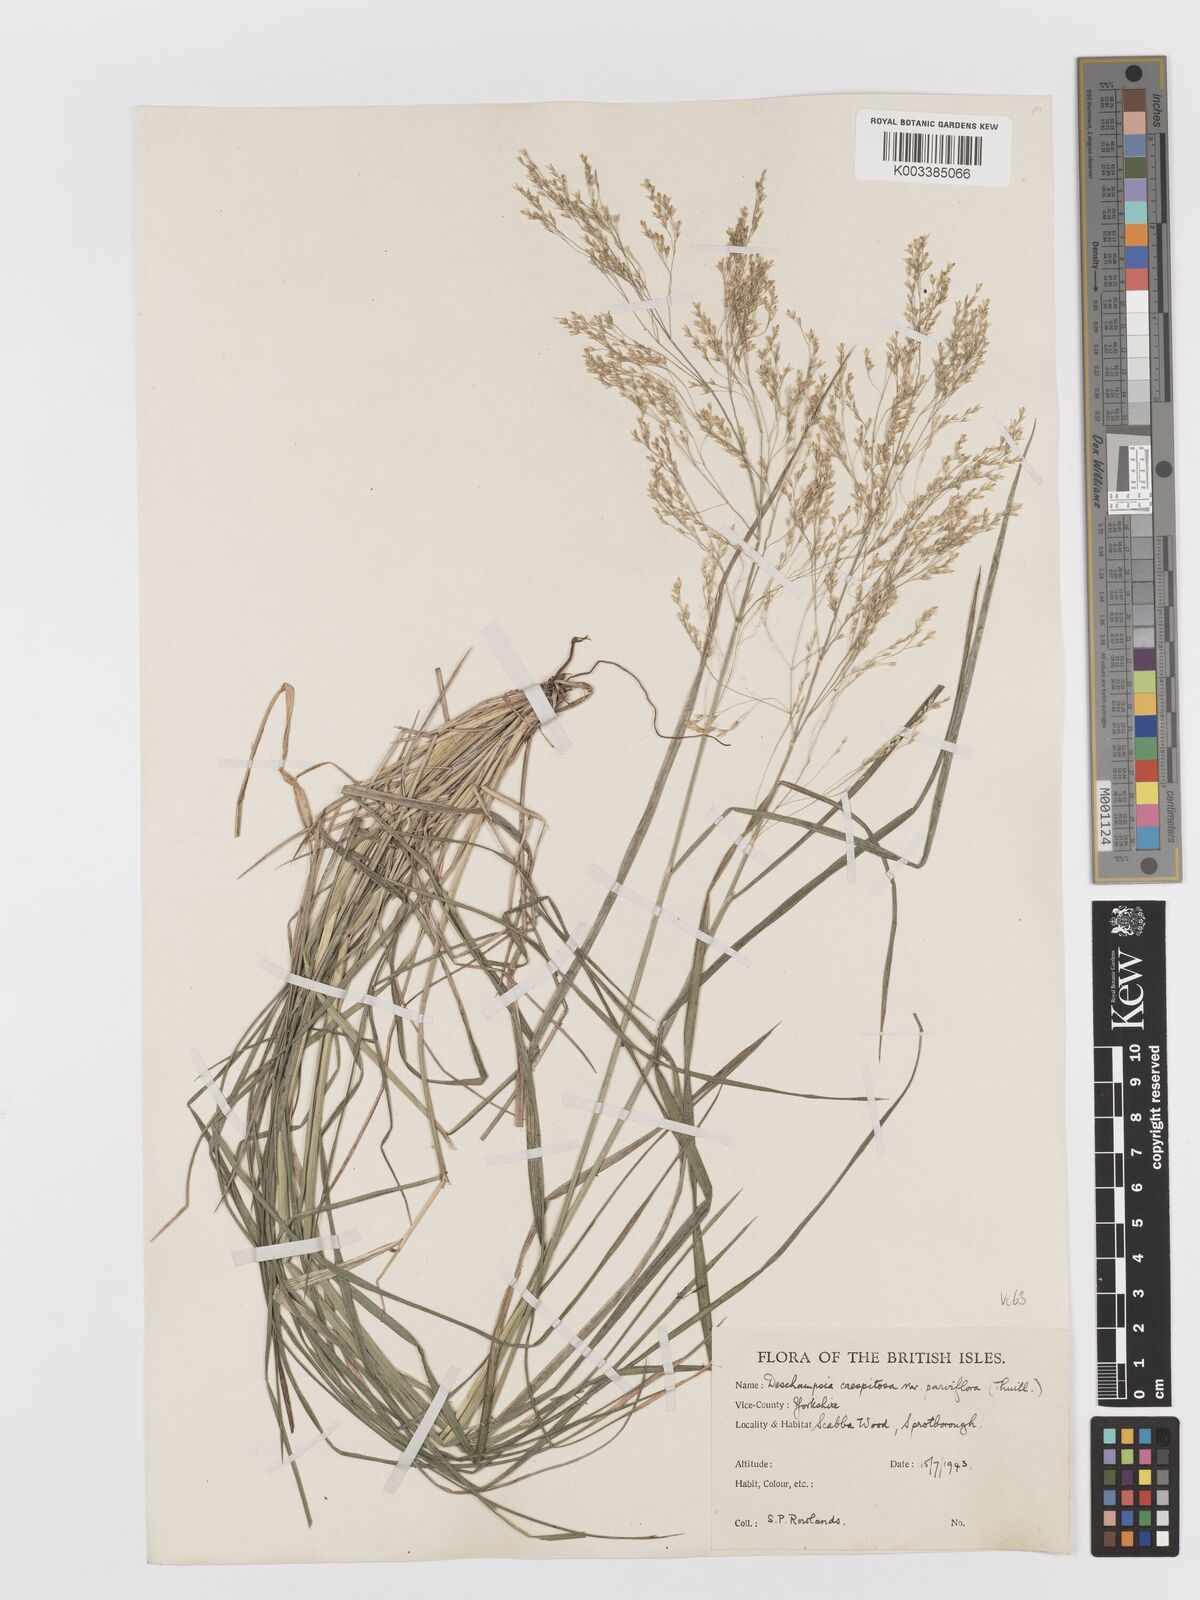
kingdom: Plantae
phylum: Tracheophyta
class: Liliopsida
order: Poales
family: Poaceae
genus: Deschampsia
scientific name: Deschampsia cespitosa
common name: Tufted hair-grass
